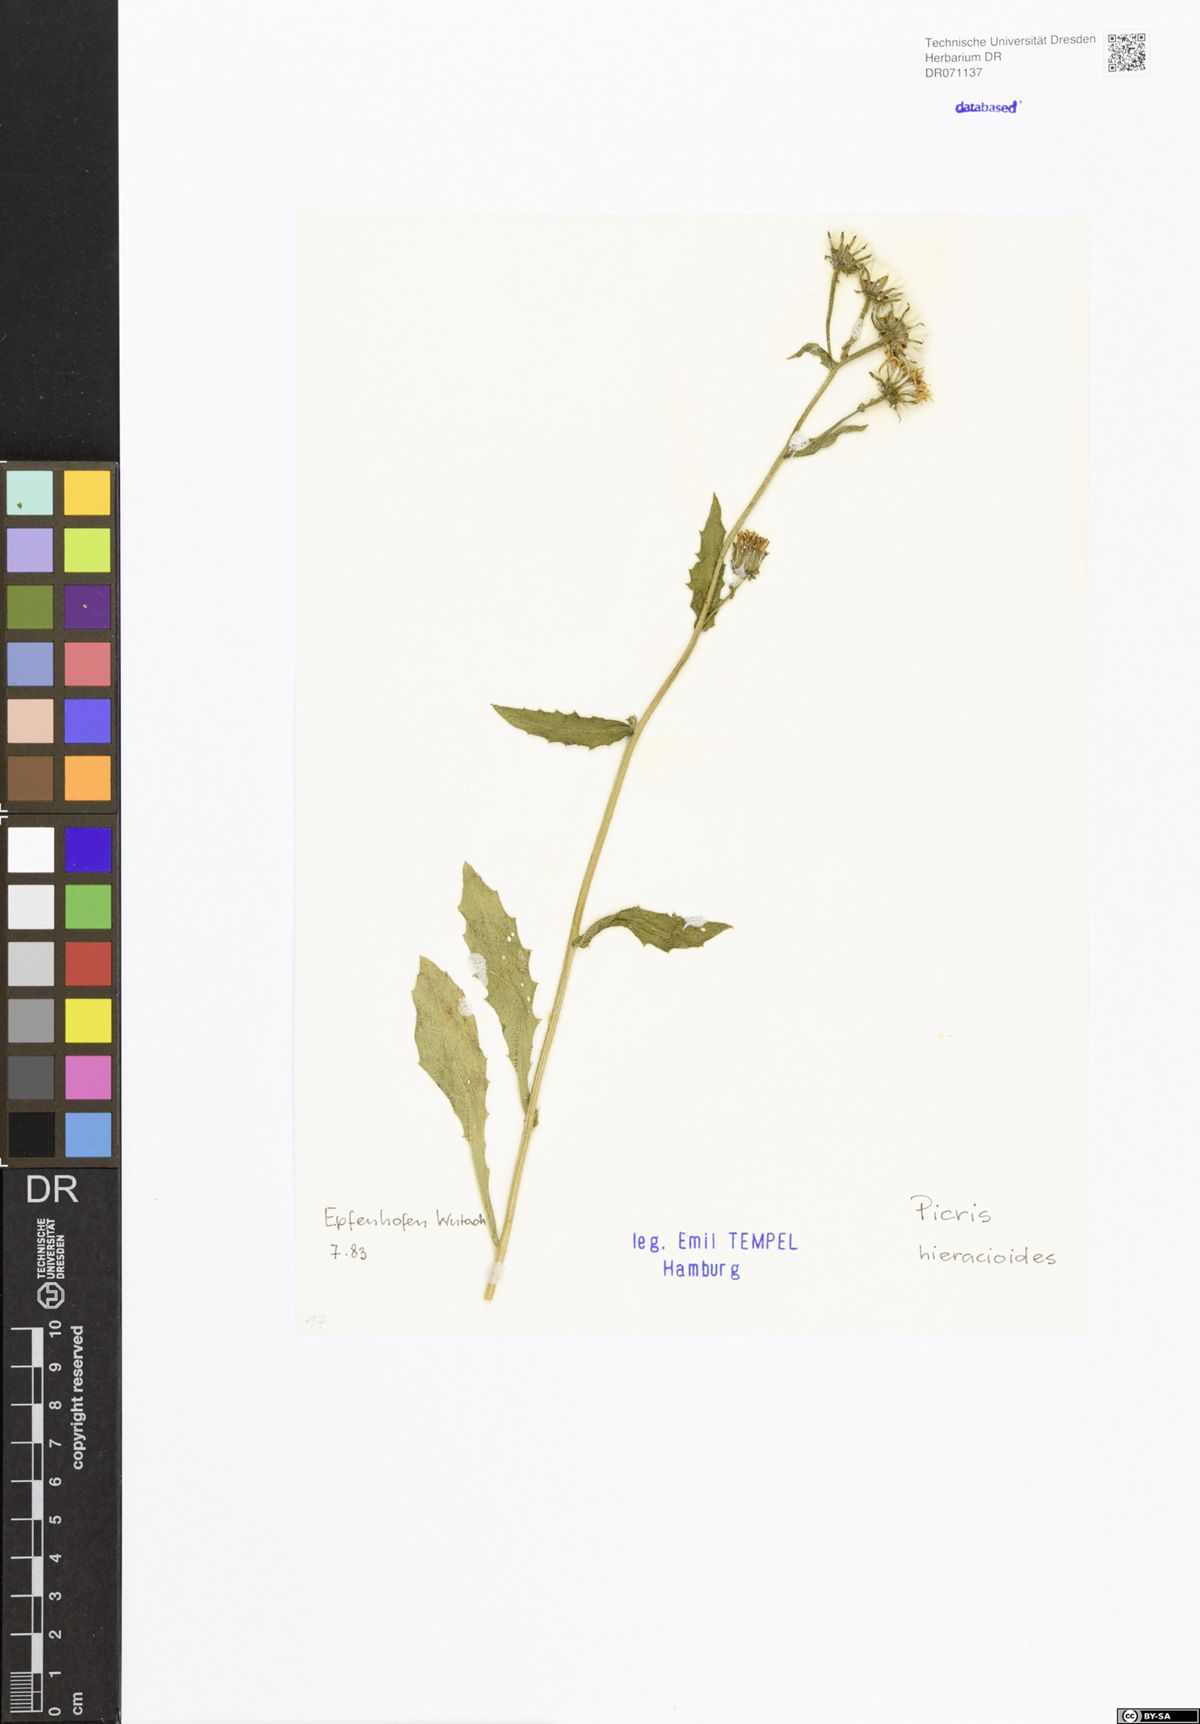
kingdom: Plantae
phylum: Tracheophyta
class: Magnoliopsida
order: Asterales
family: Asteraceae
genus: Picris
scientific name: Picris hieracioides
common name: Hawkweed oxtongue
